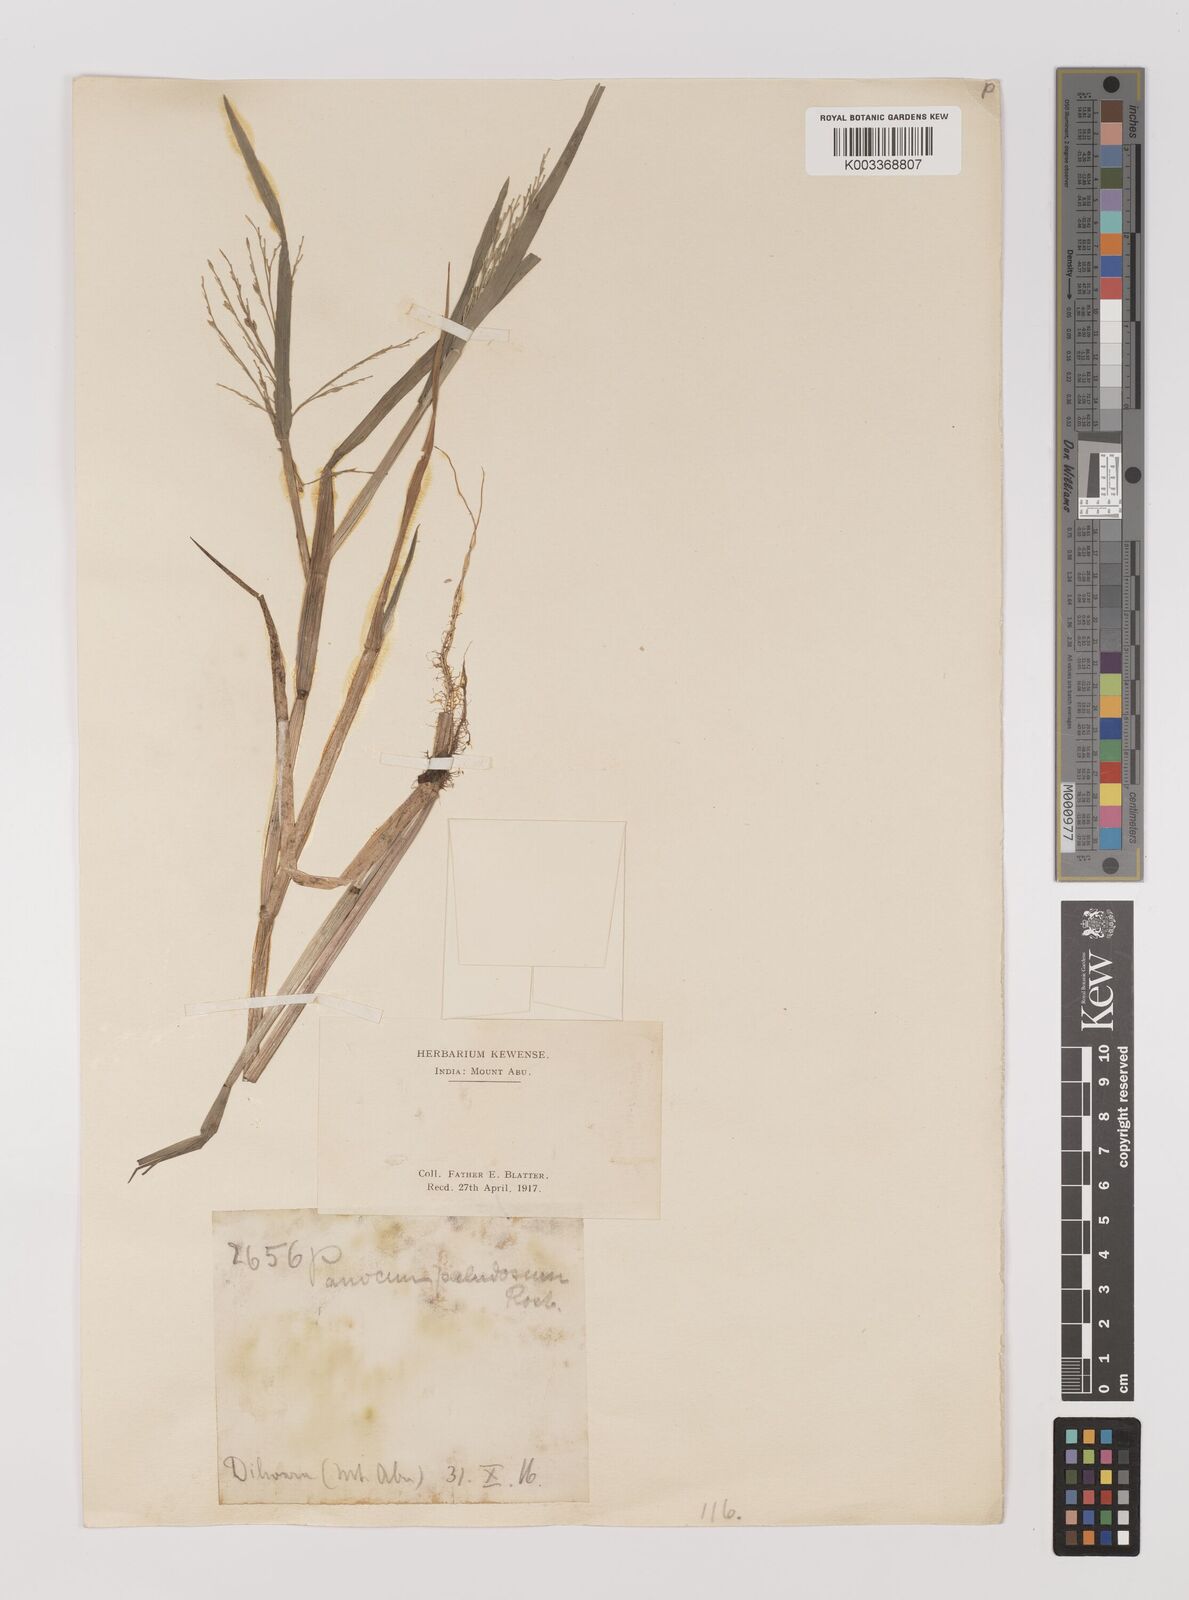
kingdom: Plantae
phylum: Tracheophyta
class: Liliopsida
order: Poales
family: Poaceae
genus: Louisiella
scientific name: Louisiella paludosa
